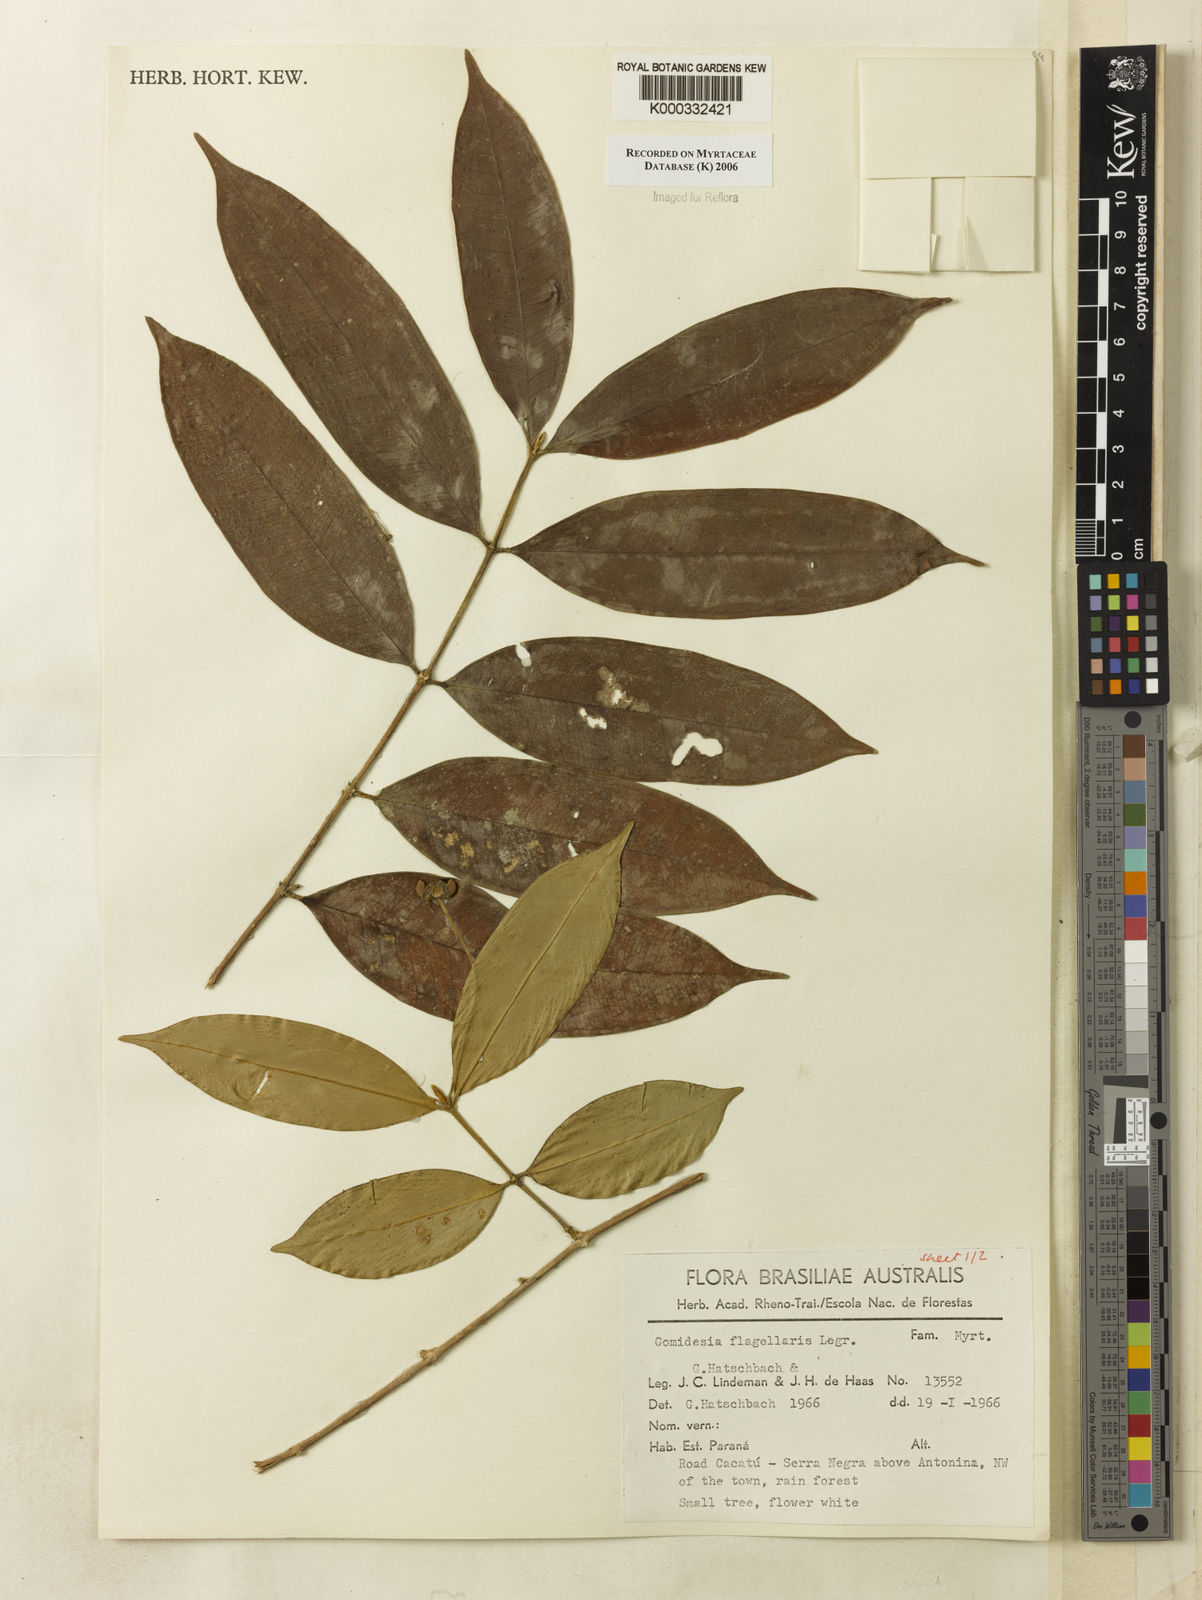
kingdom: Plantae
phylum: Tracheophyta
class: Magnoliopsida
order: Myrtales
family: Myrtaceae
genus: Myrcia
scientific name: Myrcia flagellaris
